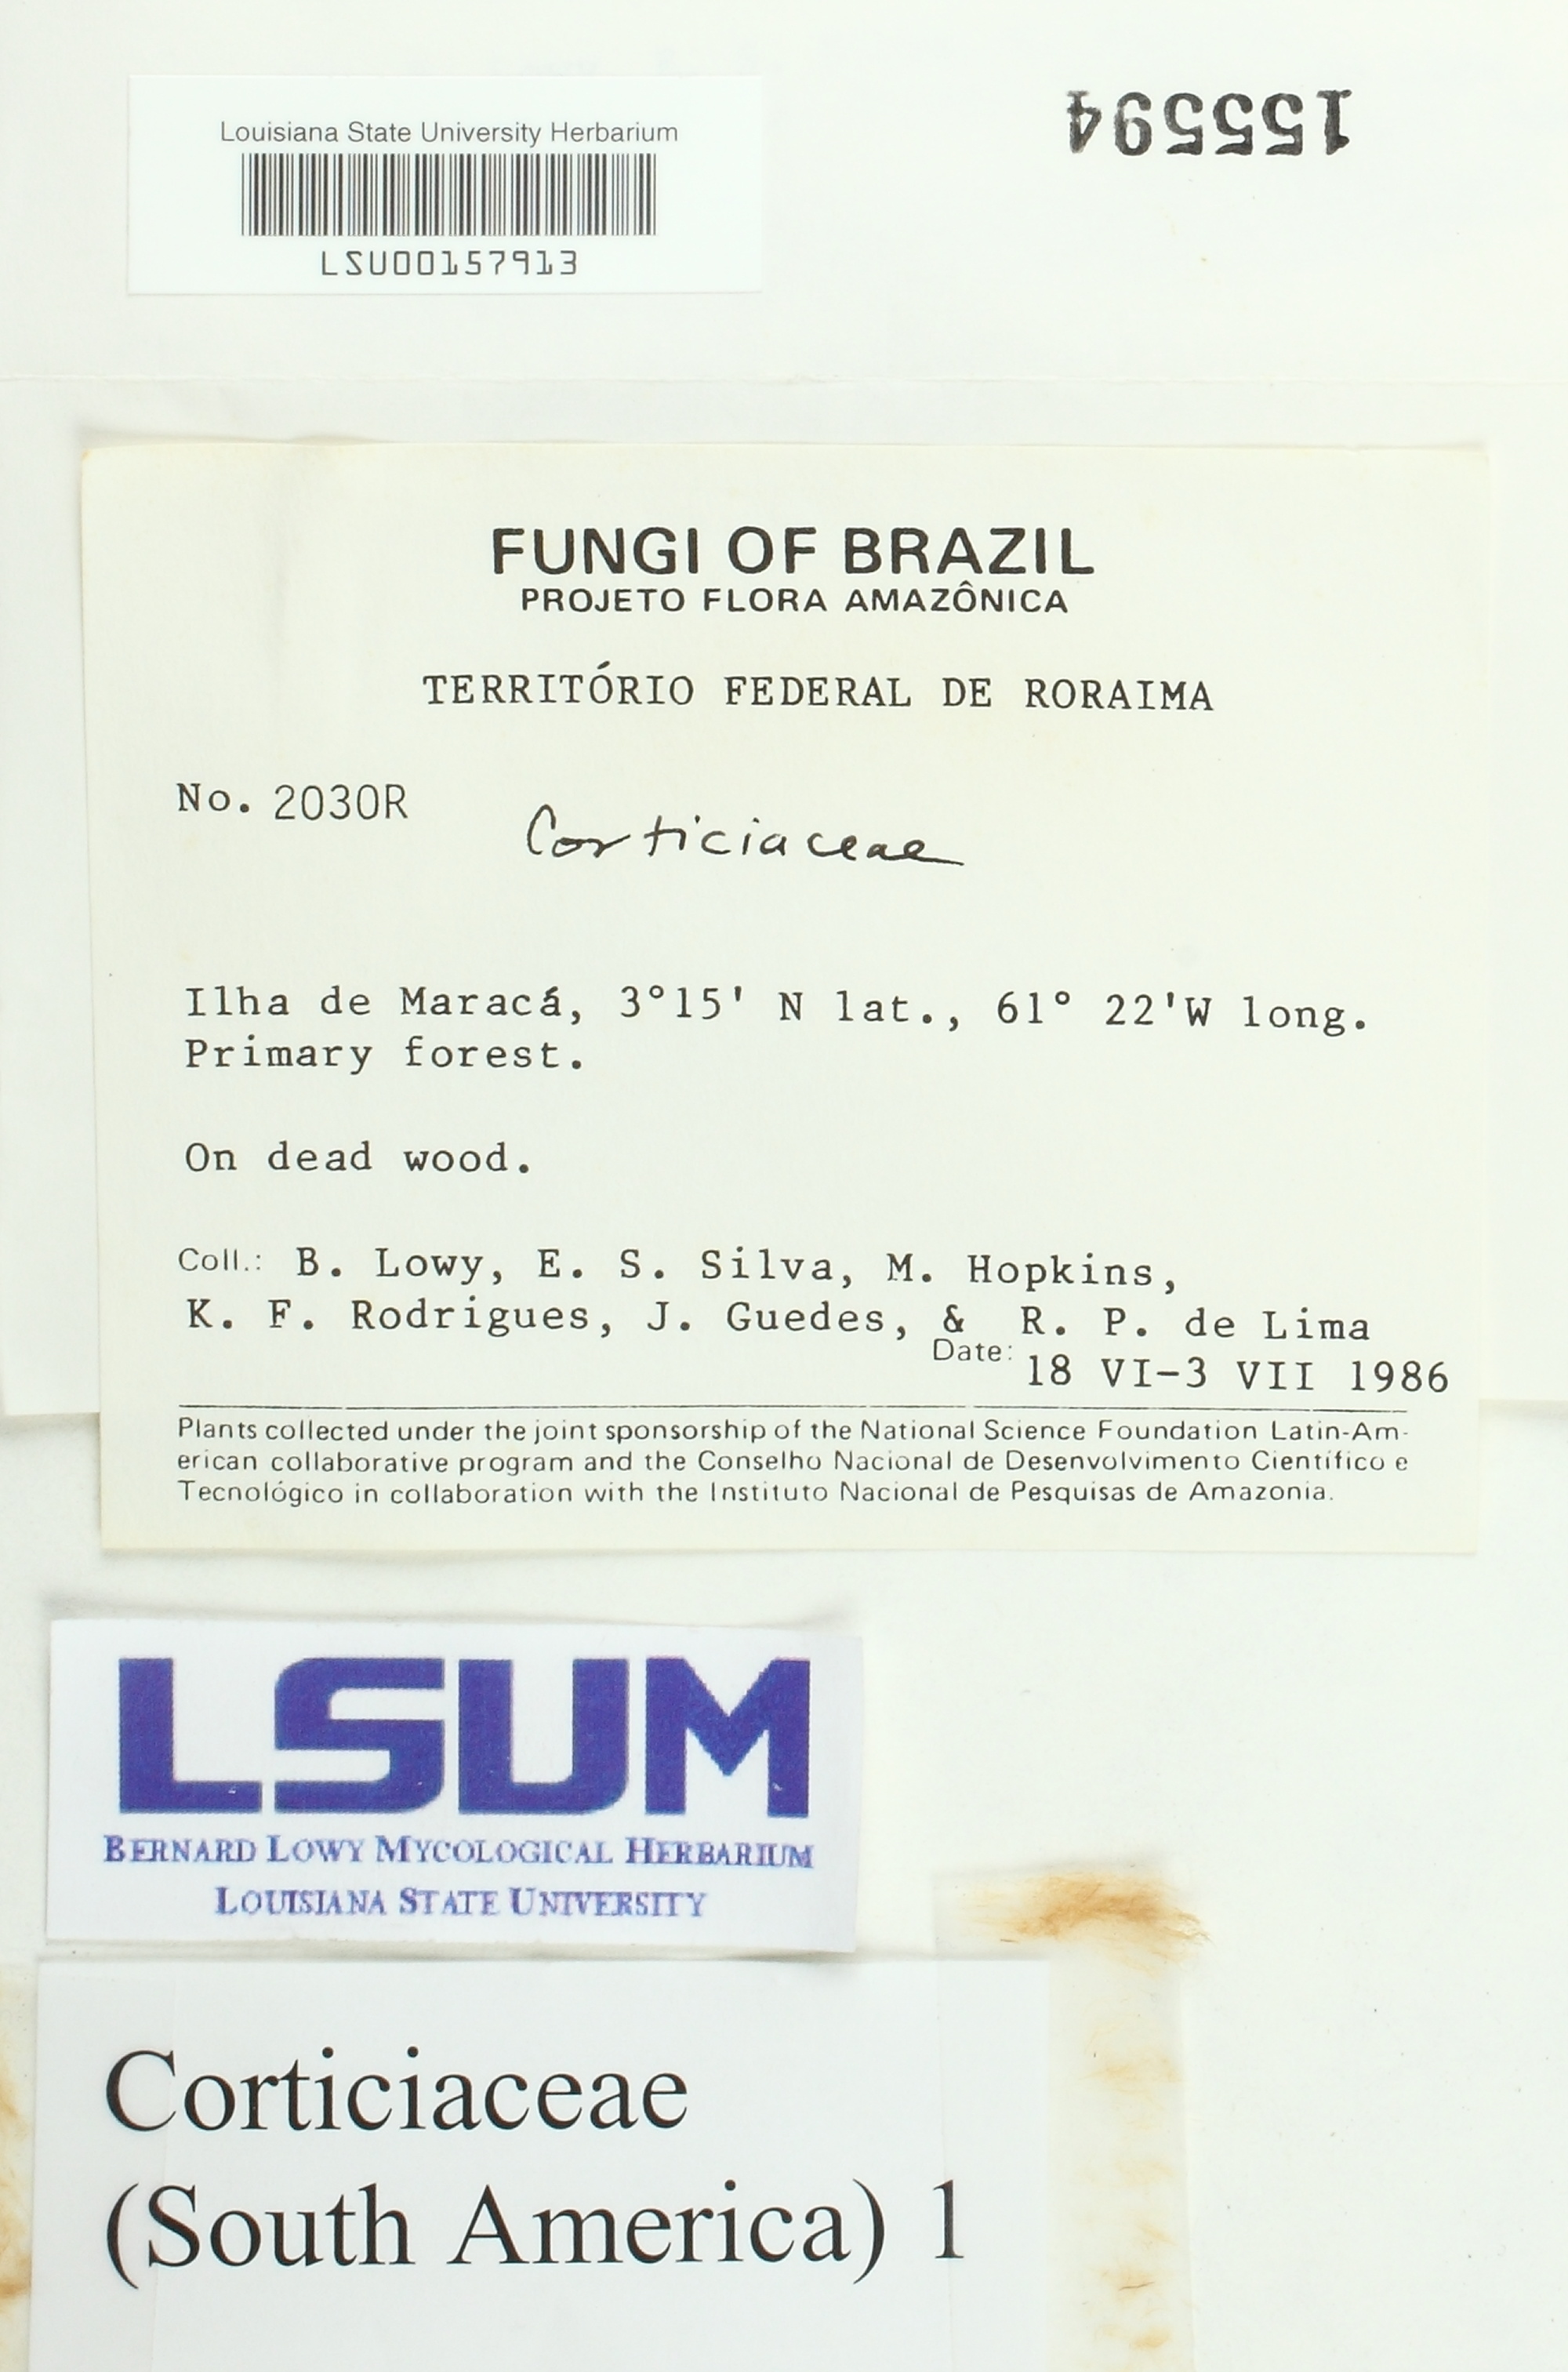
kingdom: Fungi
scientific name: Fungi
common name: Fungi
